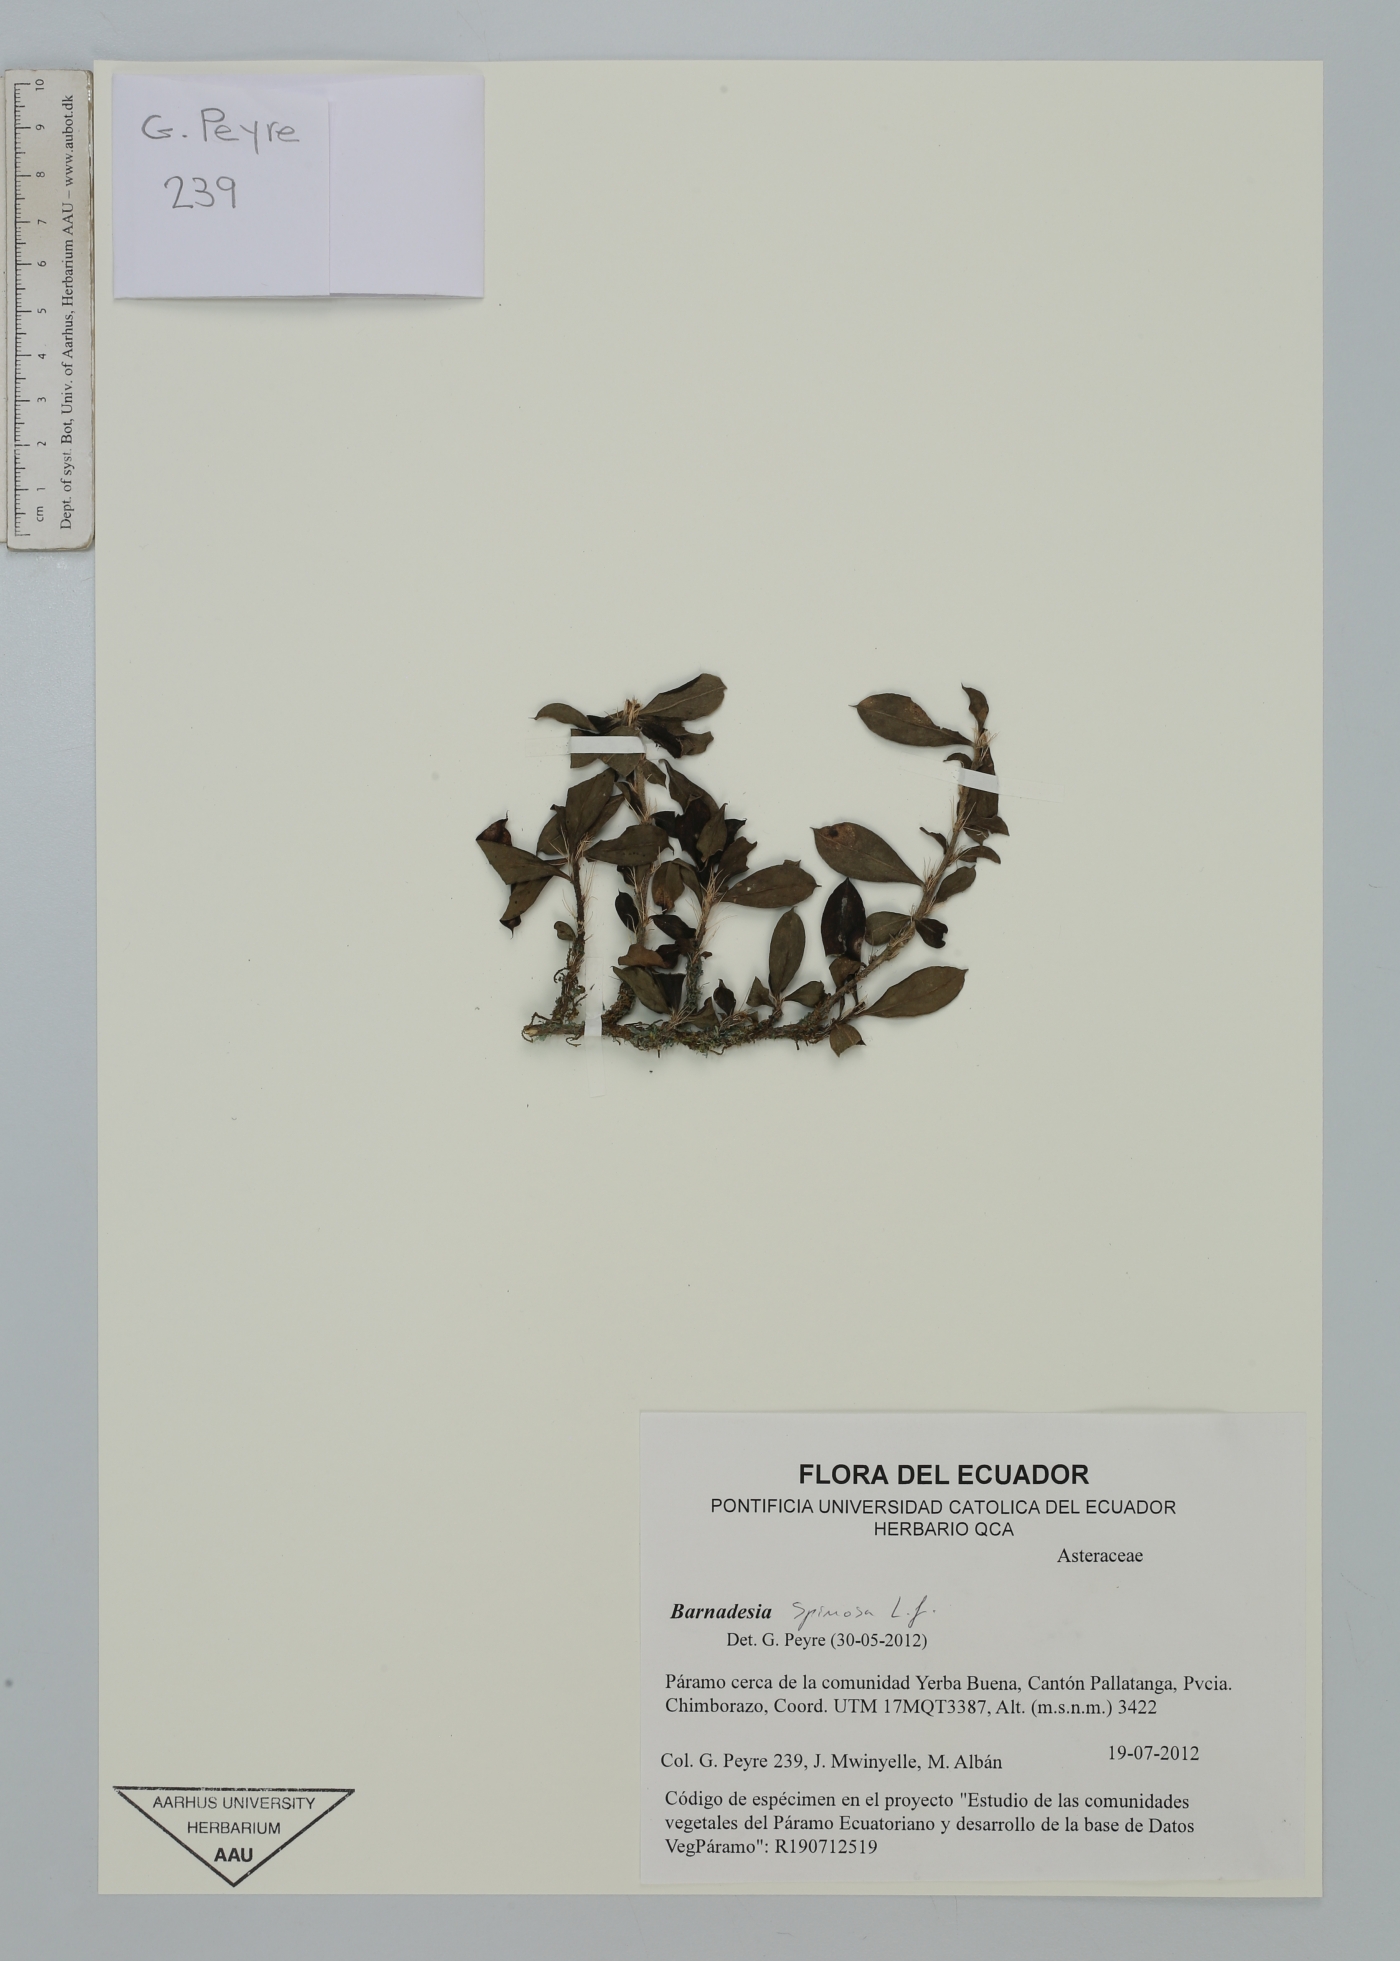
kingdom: Plantae
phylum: Tracheophyta
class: Magnoliopsida
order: Asterales
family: Asteraceae
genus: Barnadesia
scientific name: Barnadesia spinosa
